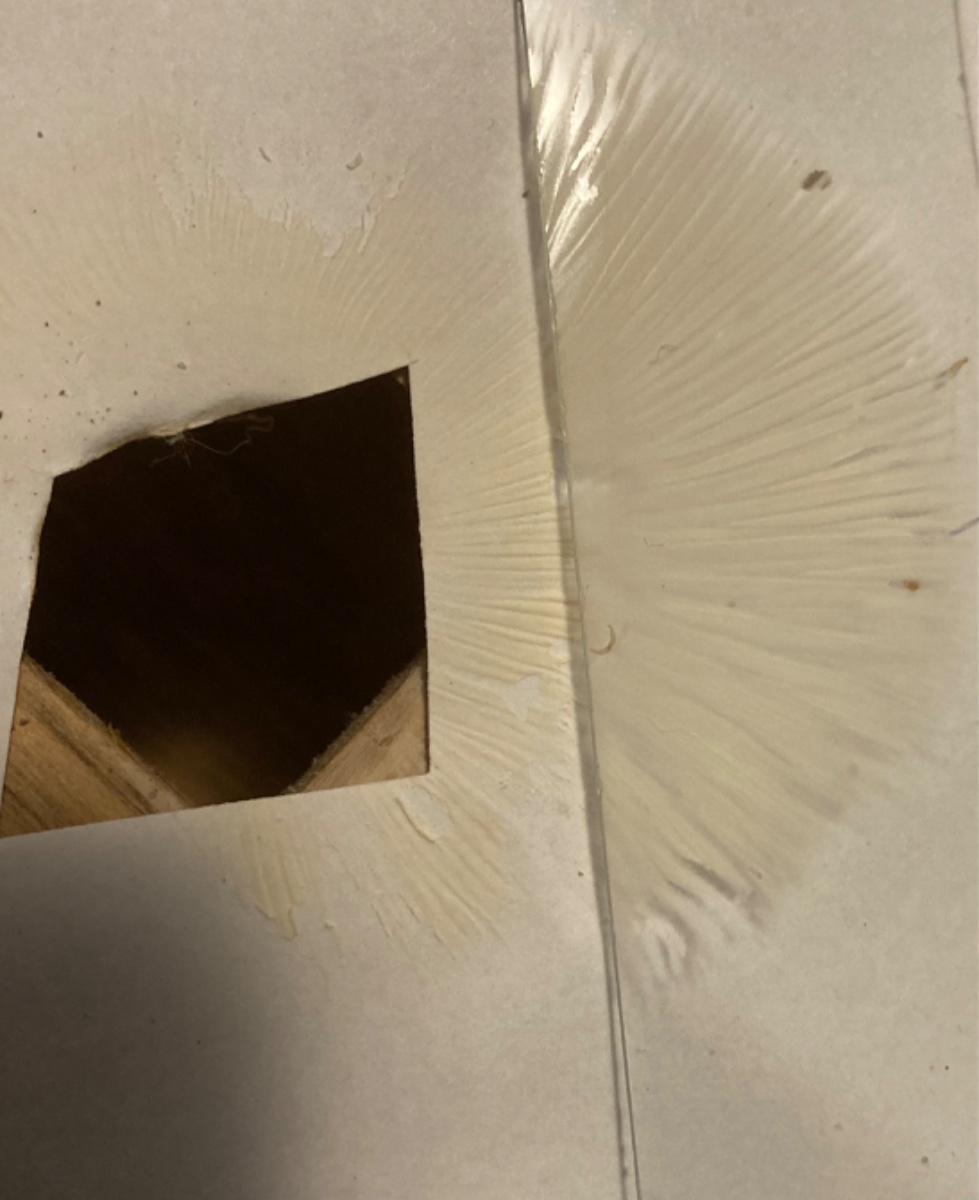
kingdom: Fungi
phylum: Basidiomycota
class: Agaricomycetes
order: Russulales
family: Russulaceae
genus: Russula
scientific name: Russula
